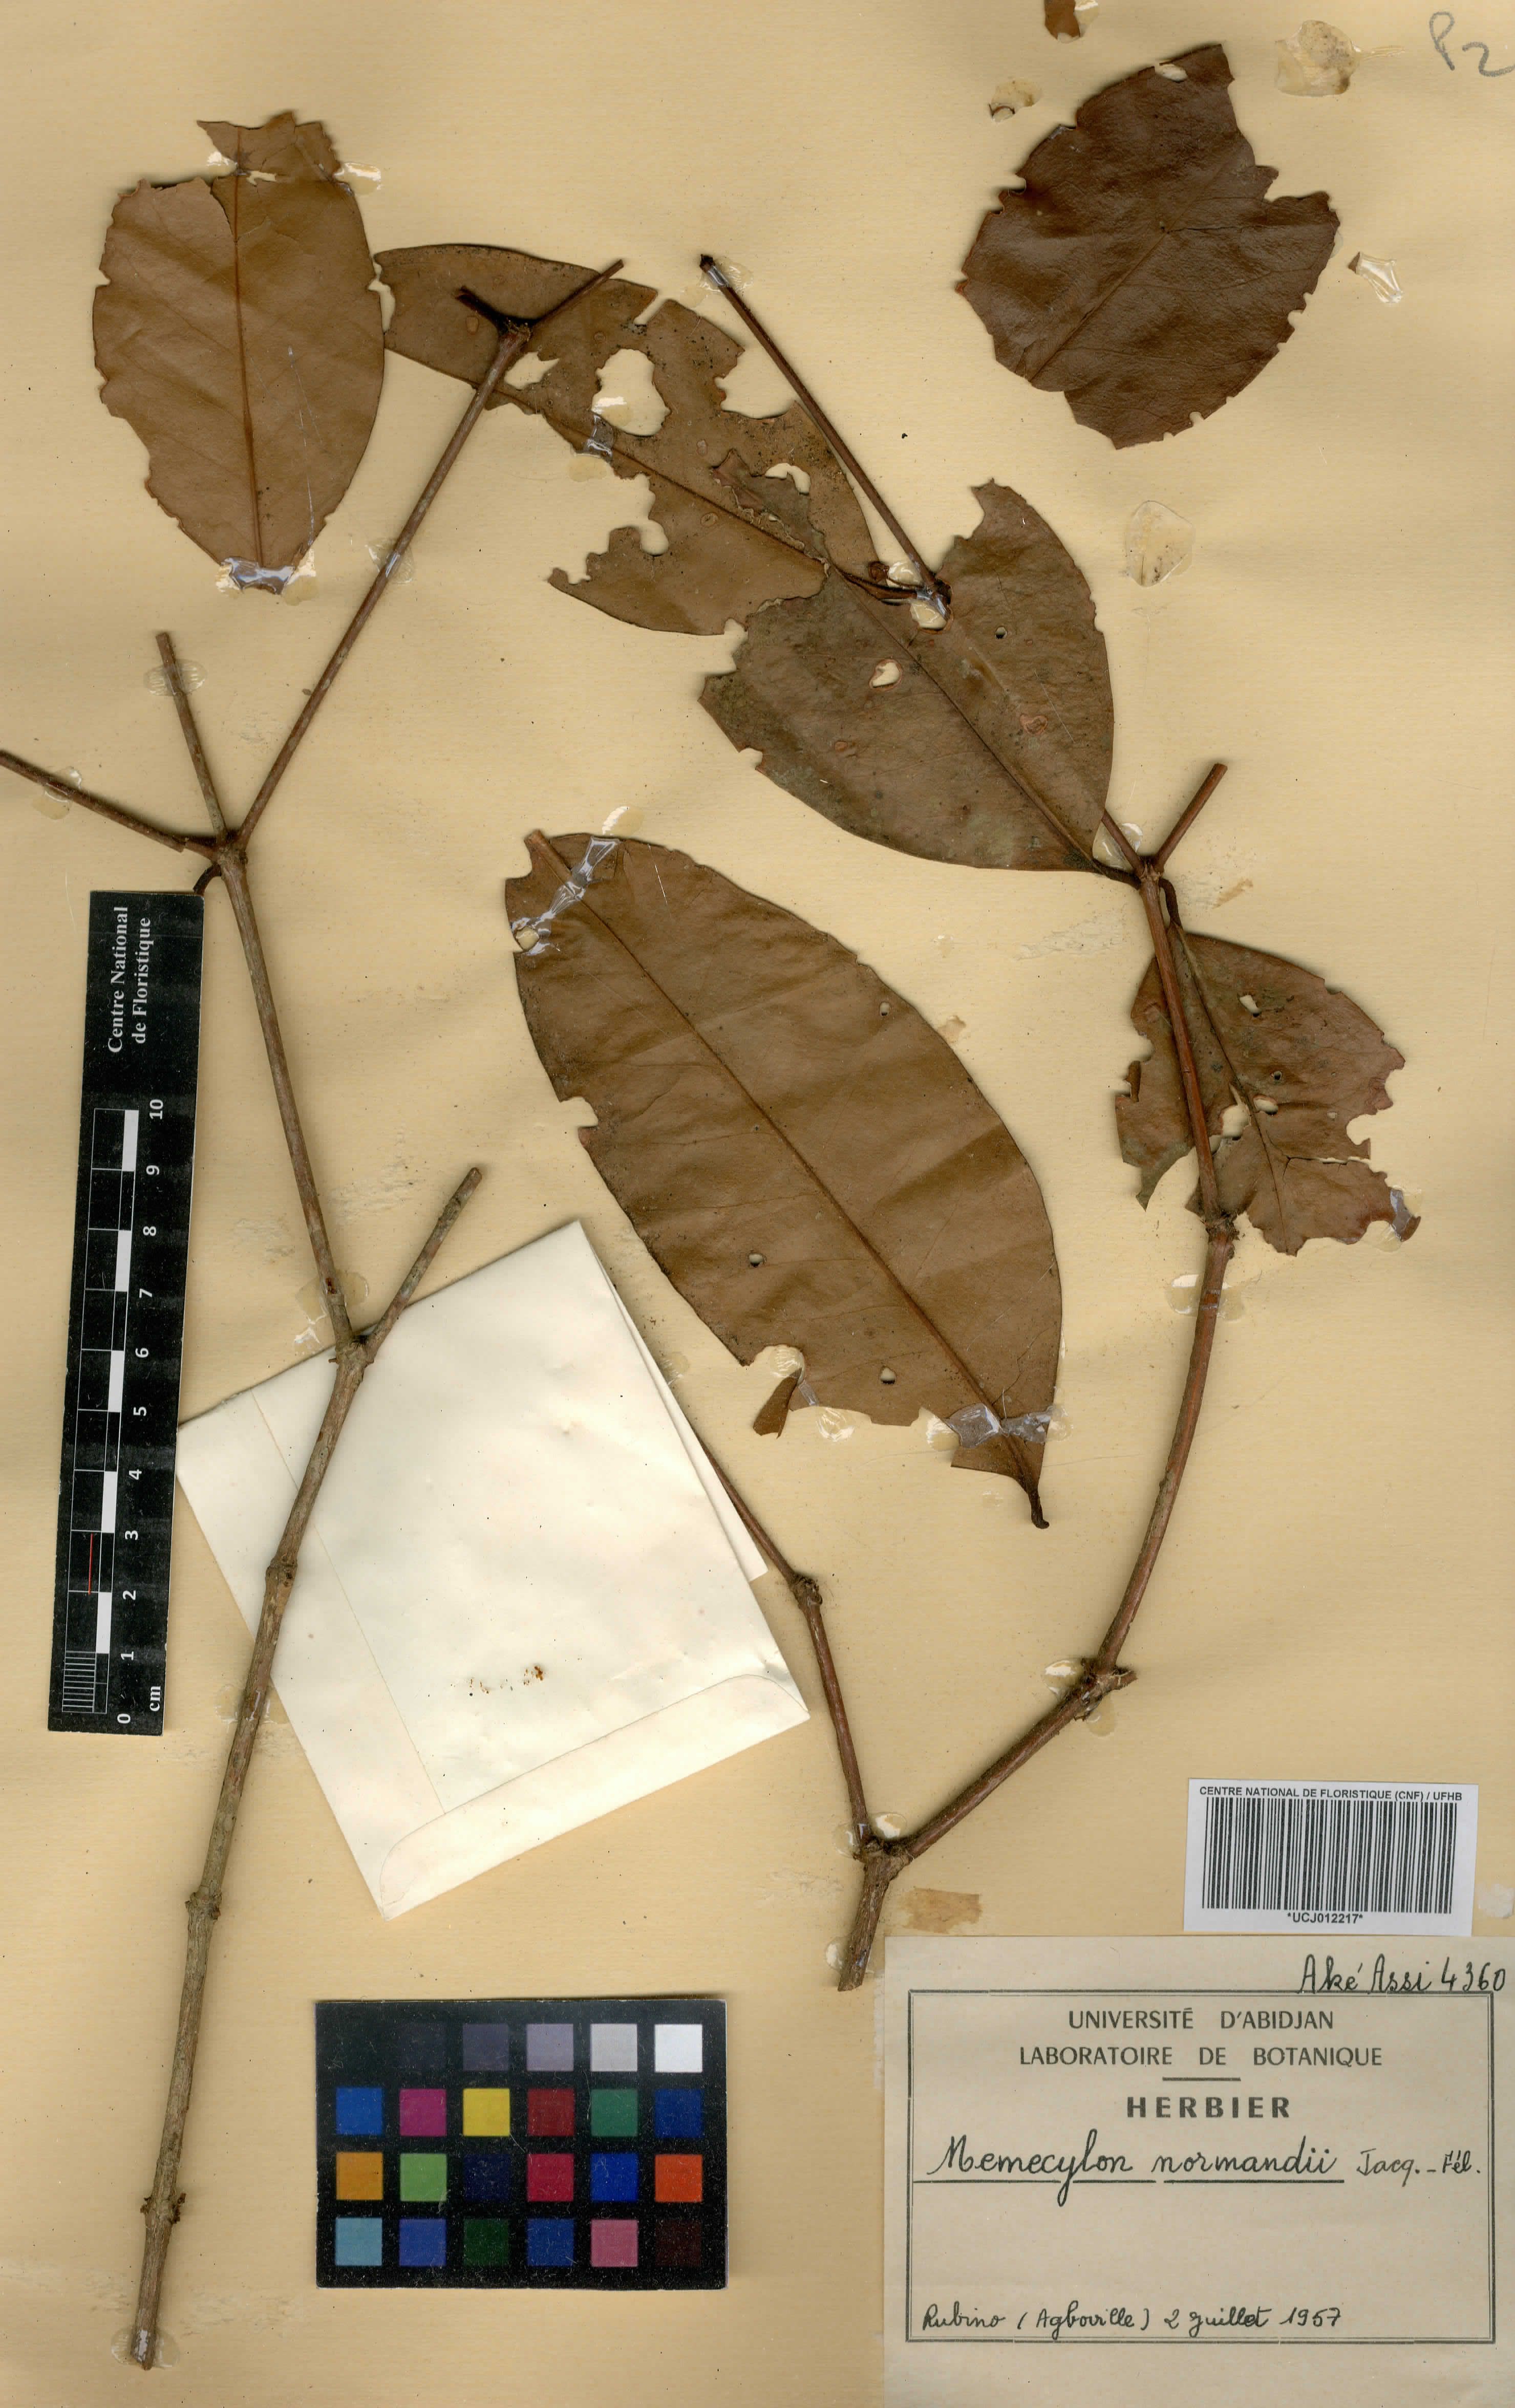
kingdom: Plantae
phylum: Tracheophyta
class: Magnoliopsida
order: Myrtales
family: Melastomataceae
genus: Memecylon
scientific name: Memecylon normandii
